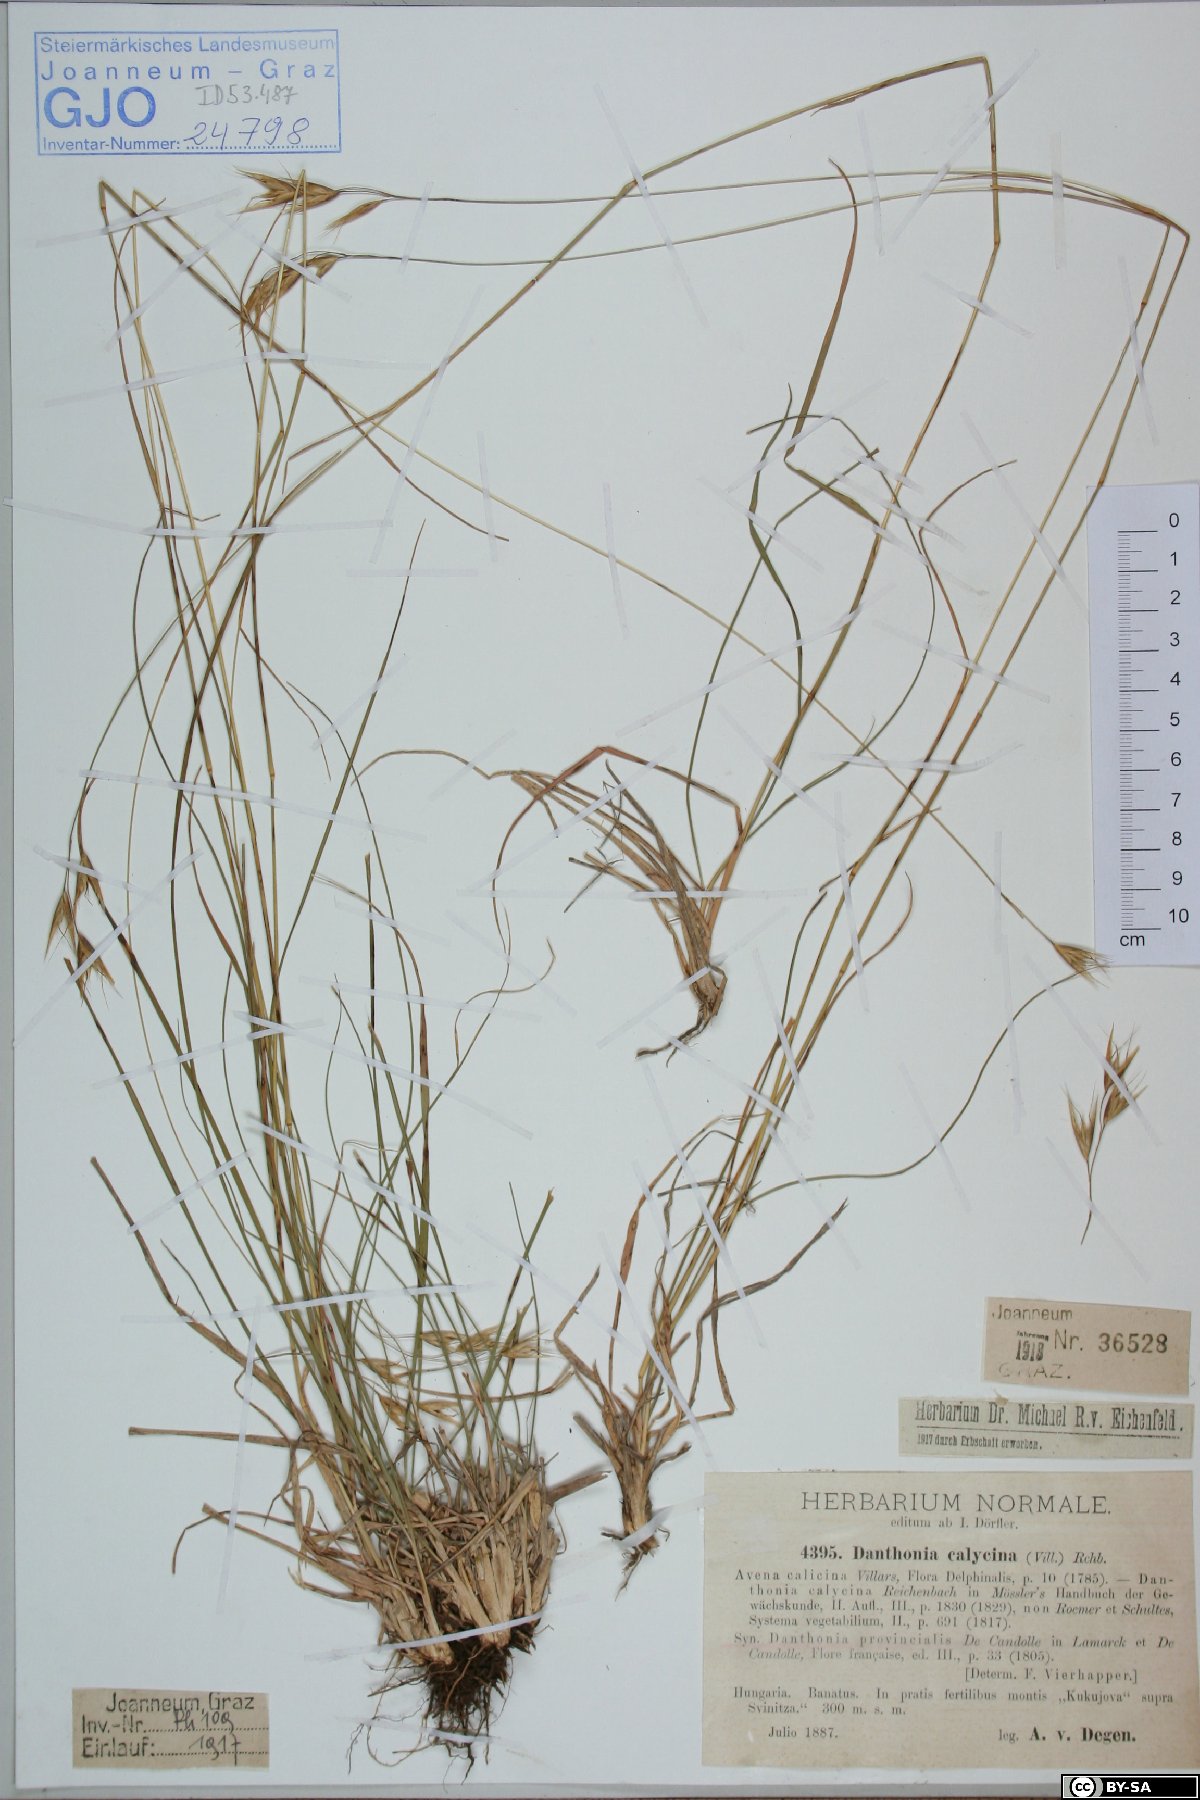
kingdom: Plantae
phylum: Tracheophyta
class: Liliopsida
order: Poales
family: Poaceae
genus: Danthonia
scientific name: Danthonia alpina
